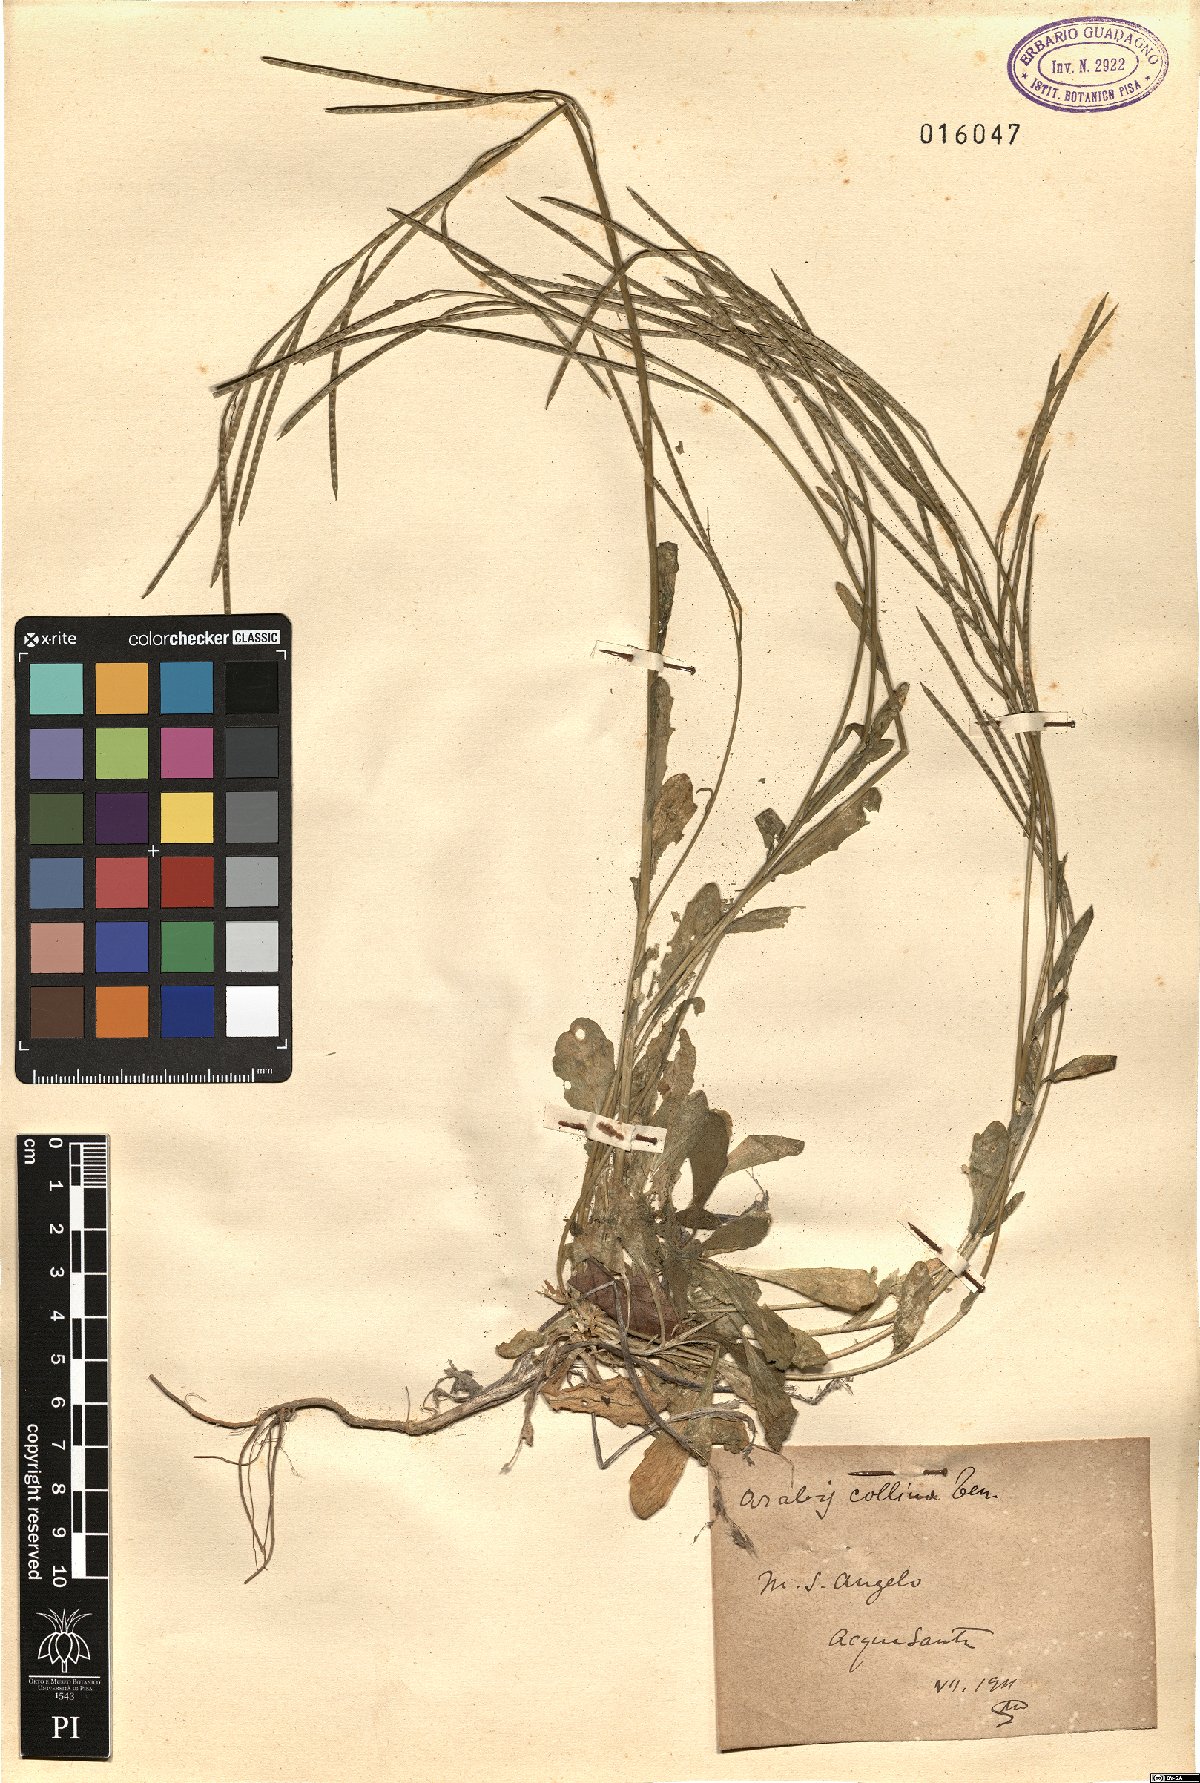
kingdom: Plantae
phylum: Tracheophyta
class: Magnoliopsida
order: Brassicales
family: Brassicaceae
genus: Arabis
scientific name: Arabis collina
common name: Rosy cress
